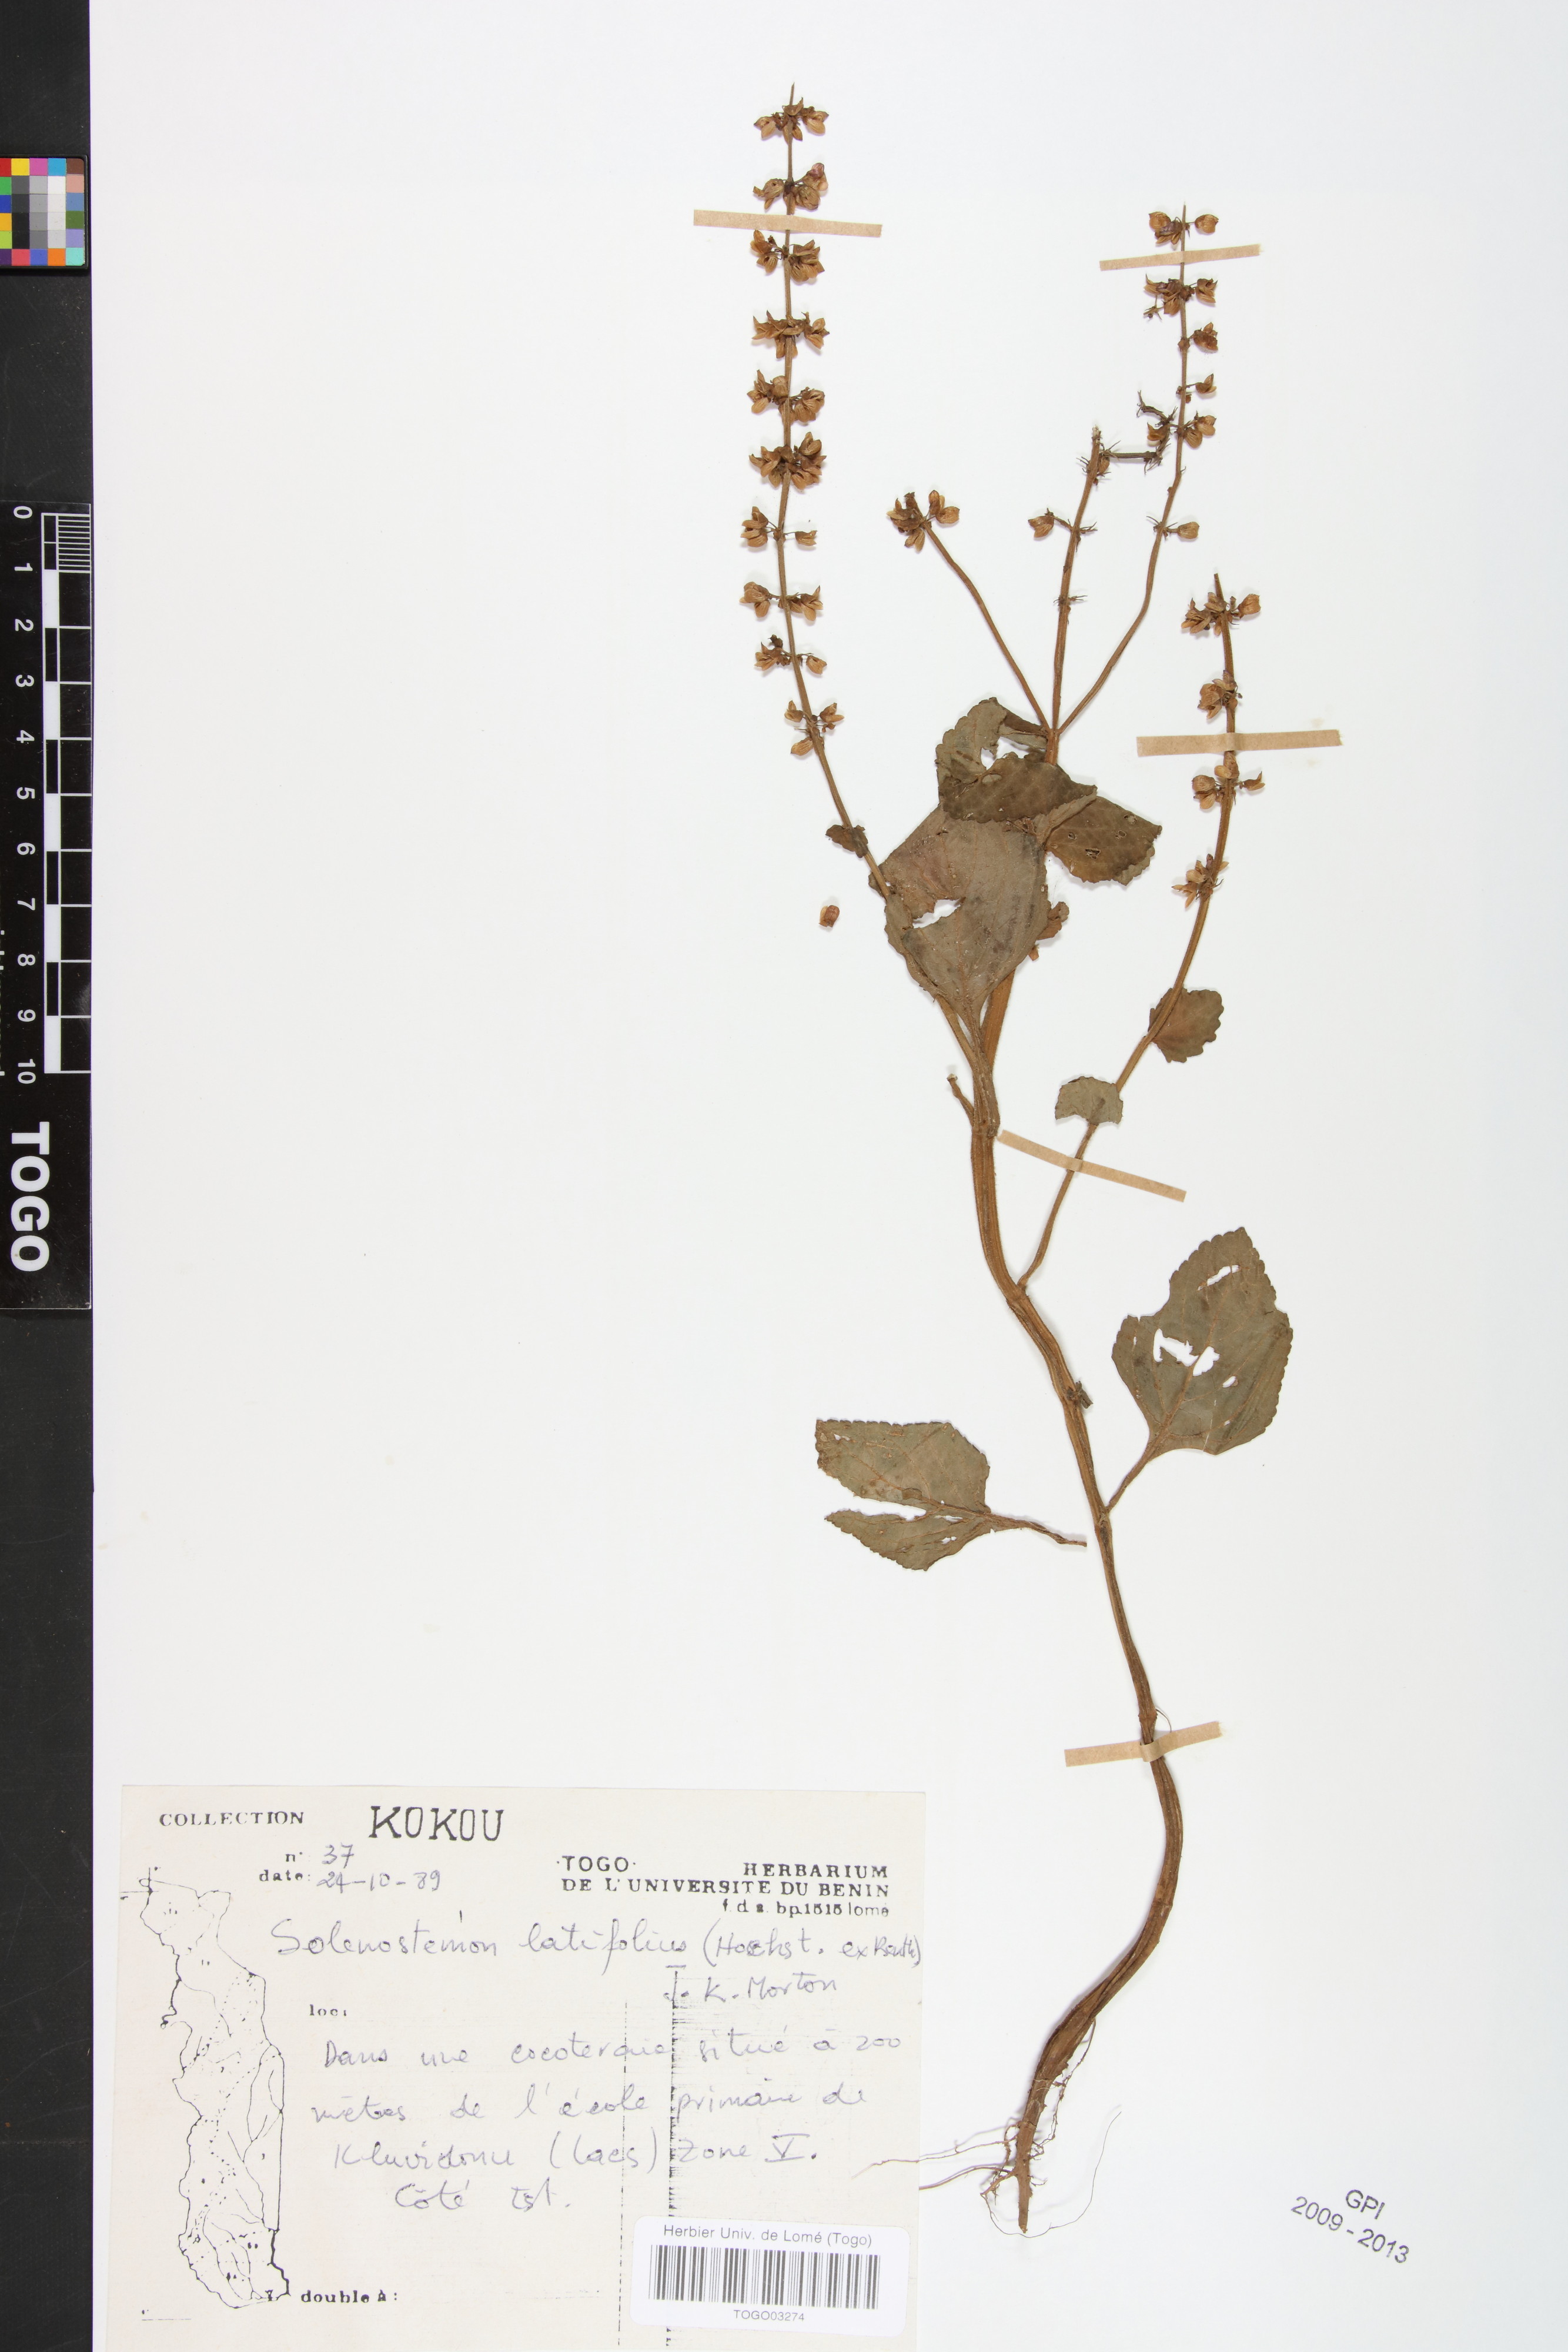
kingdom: Plantae
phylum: Tracheophyta
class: Magnoliopsida
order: Lamiales
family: Lamiaceae
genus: Coleus
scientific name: Coleus bojeri
